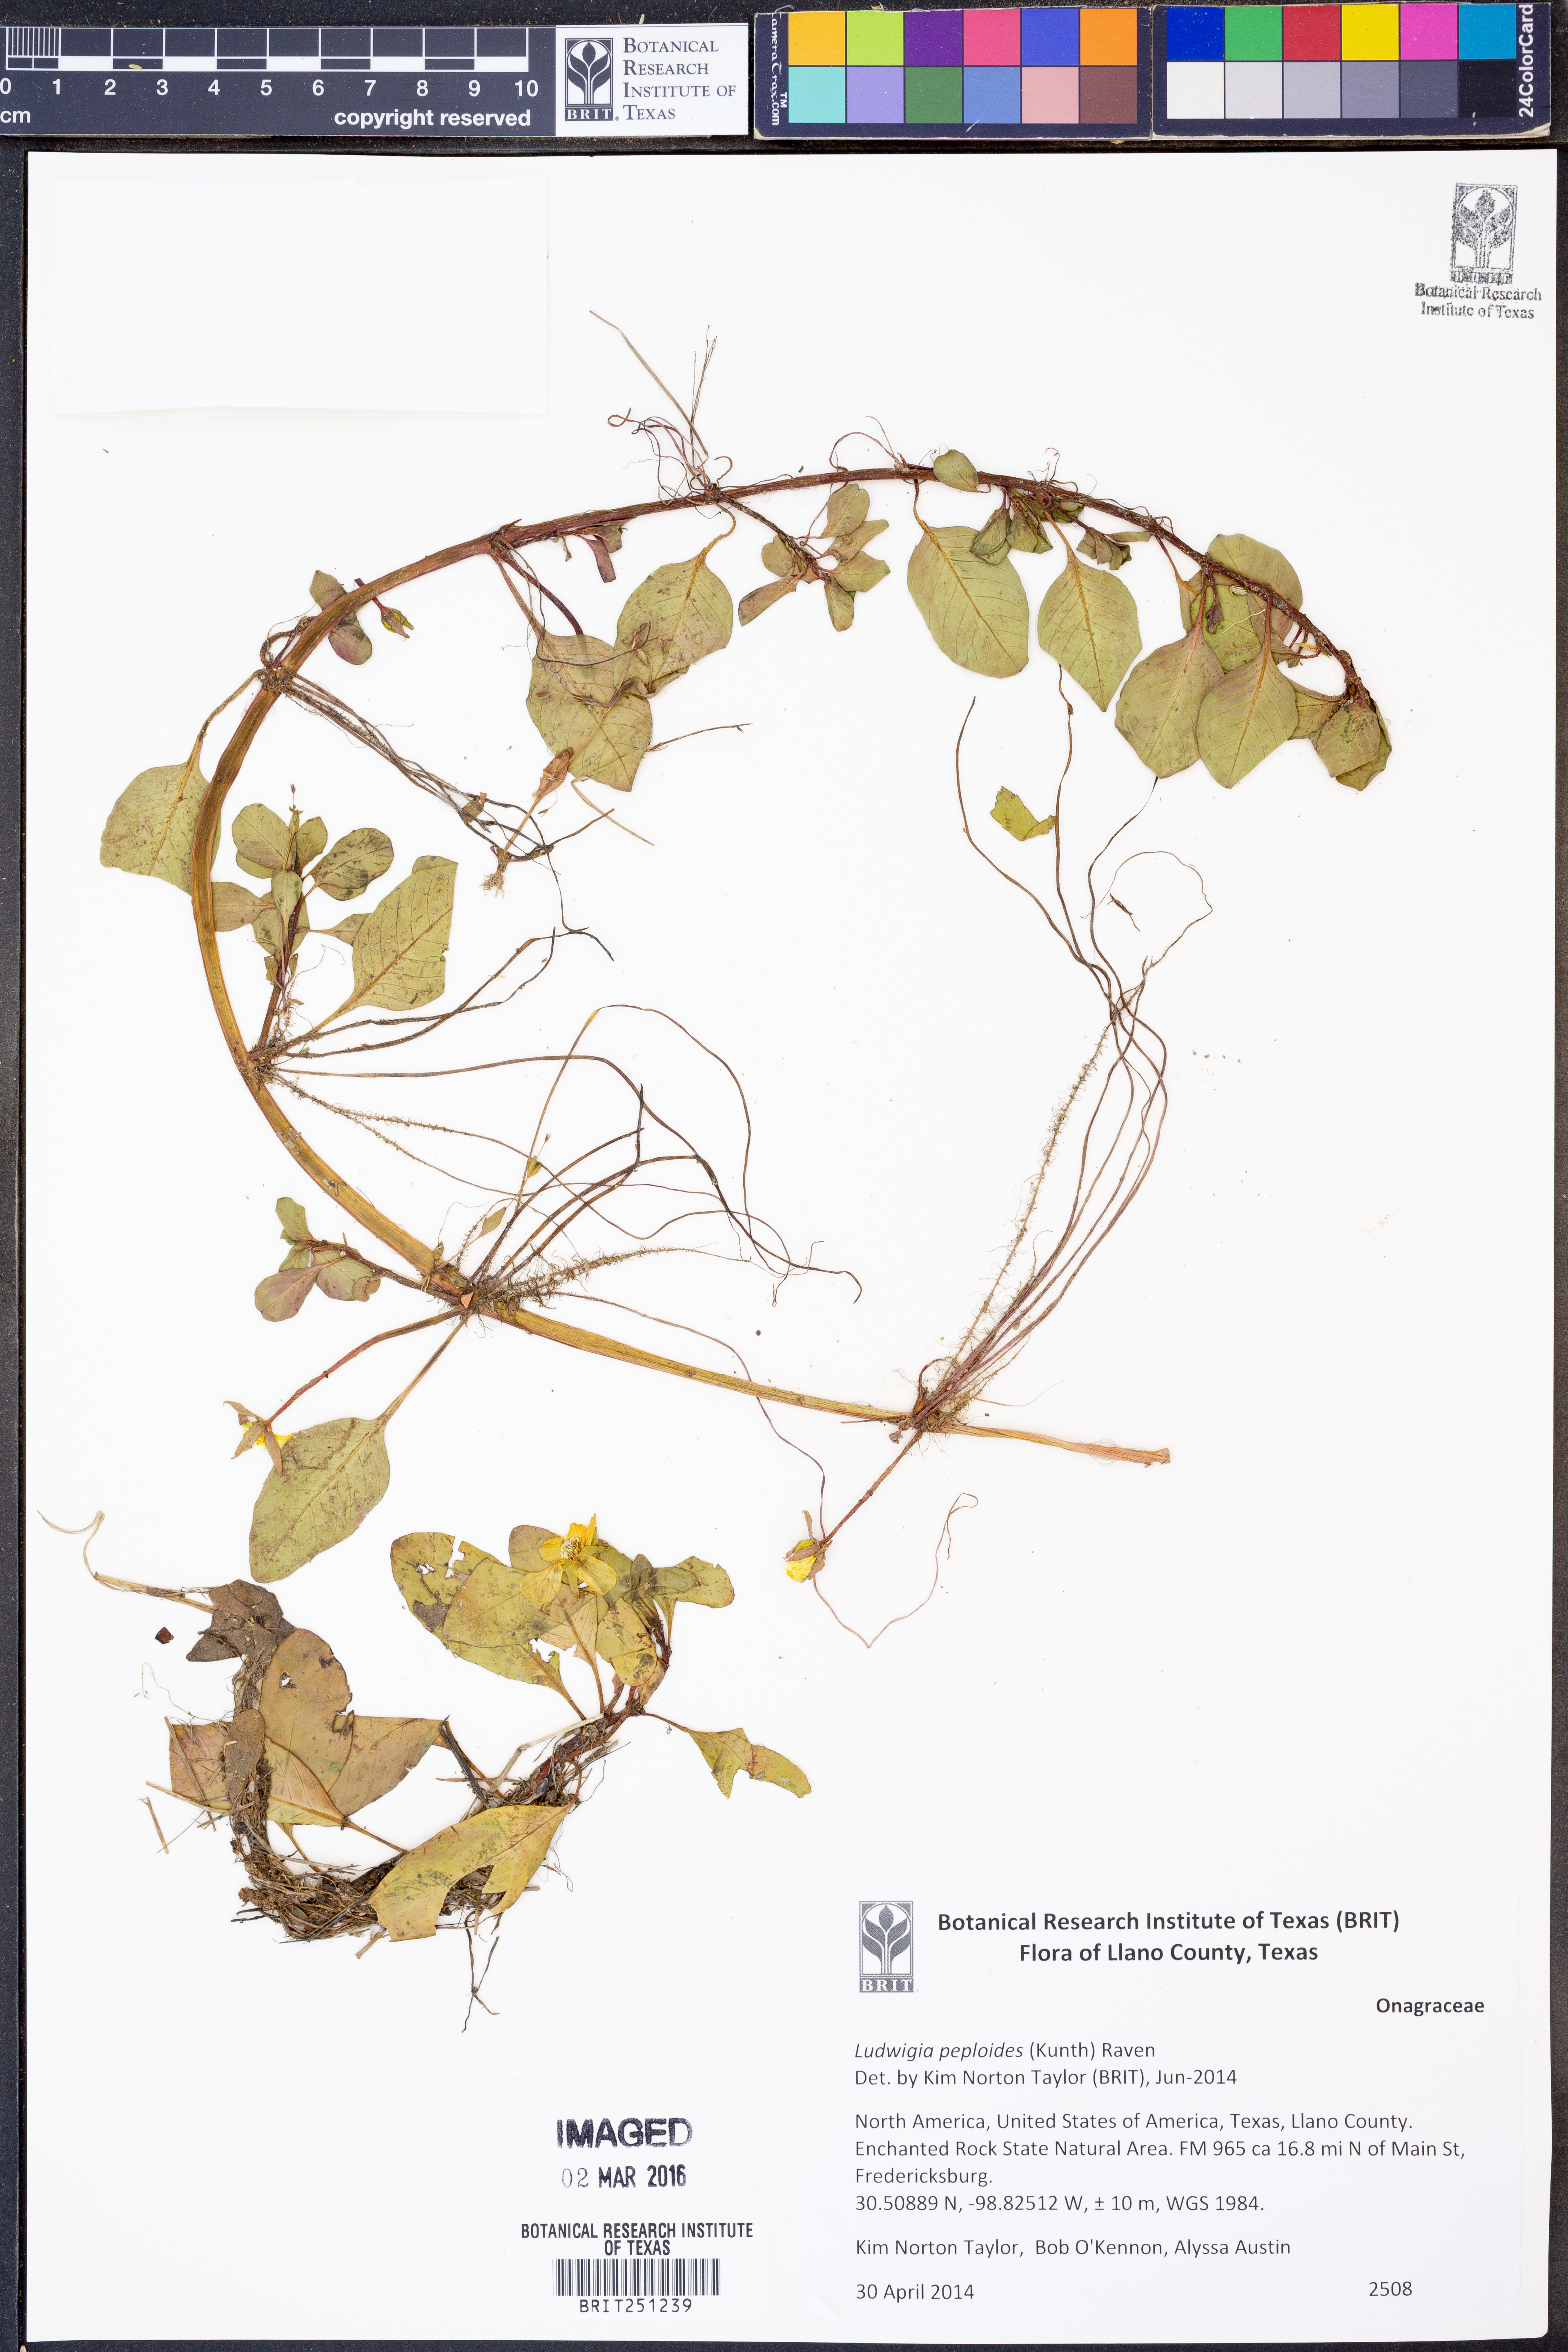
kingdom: Plantae
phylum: Tracheophyta
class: Magnoliopsida
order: Myrtales
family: Onagraceae
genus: Ludwigia
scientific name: Ludwigia peploides
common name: Floating primrose-willow
